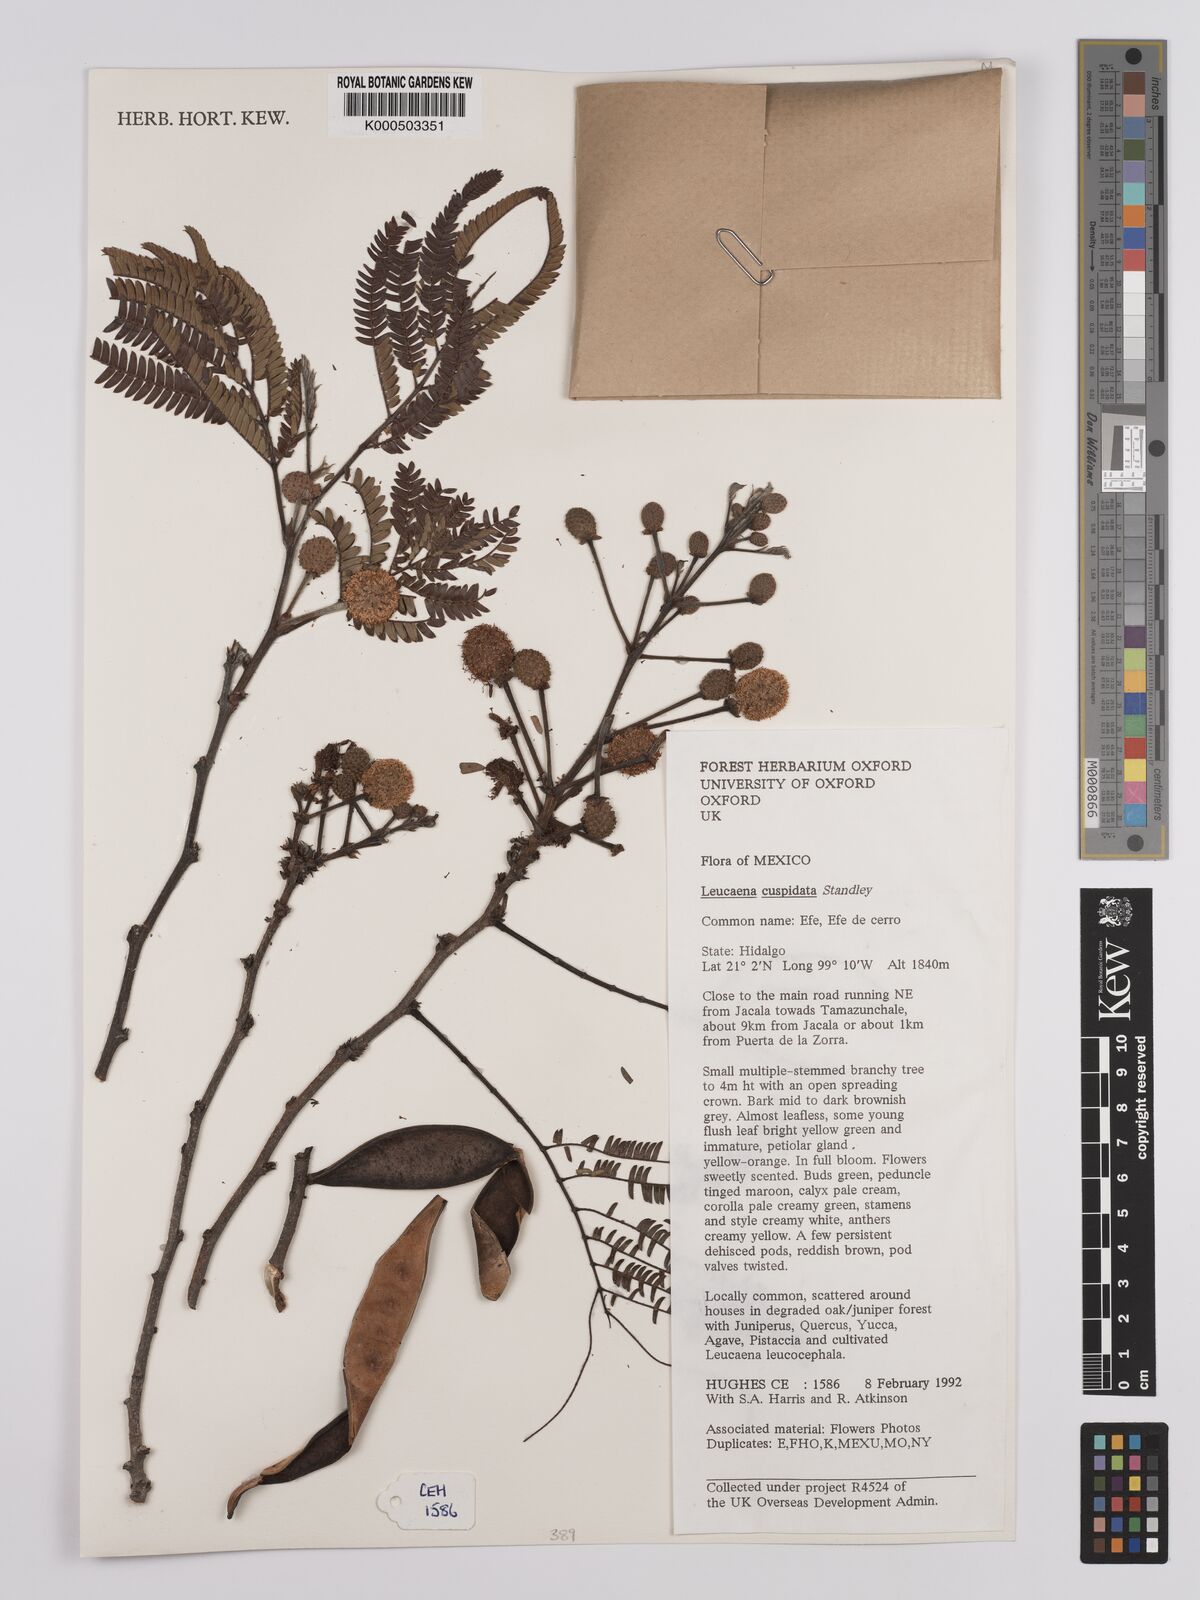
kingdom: Plantae
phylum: Tracheophyta
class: Magnoliopsida
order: Fabales
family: Fabaceae
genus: Leucaena
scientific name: Leucaena cuspidata
